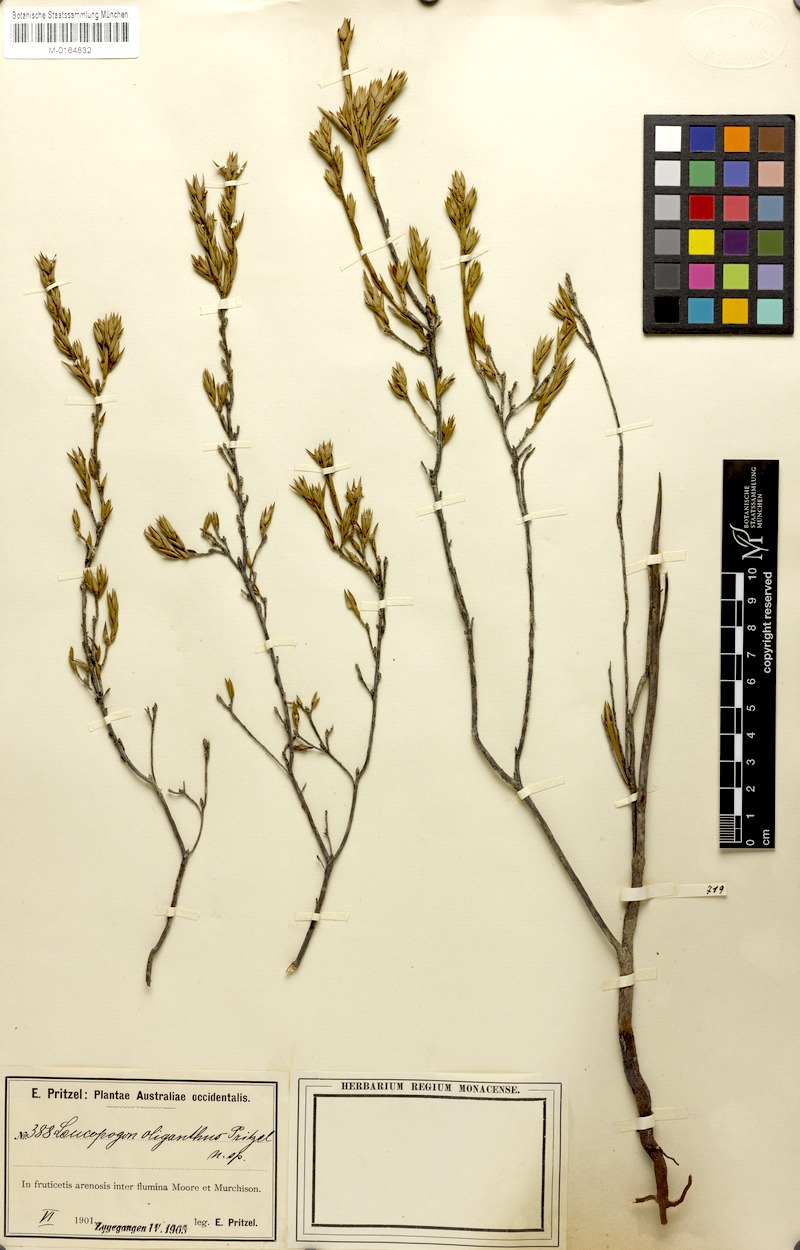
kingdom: Plantae
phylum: Tracheophyta
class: Magnoliopsida
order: Ericales
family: Ericaceae
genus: Leucopogon
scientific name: Leucopogon oliganthus
